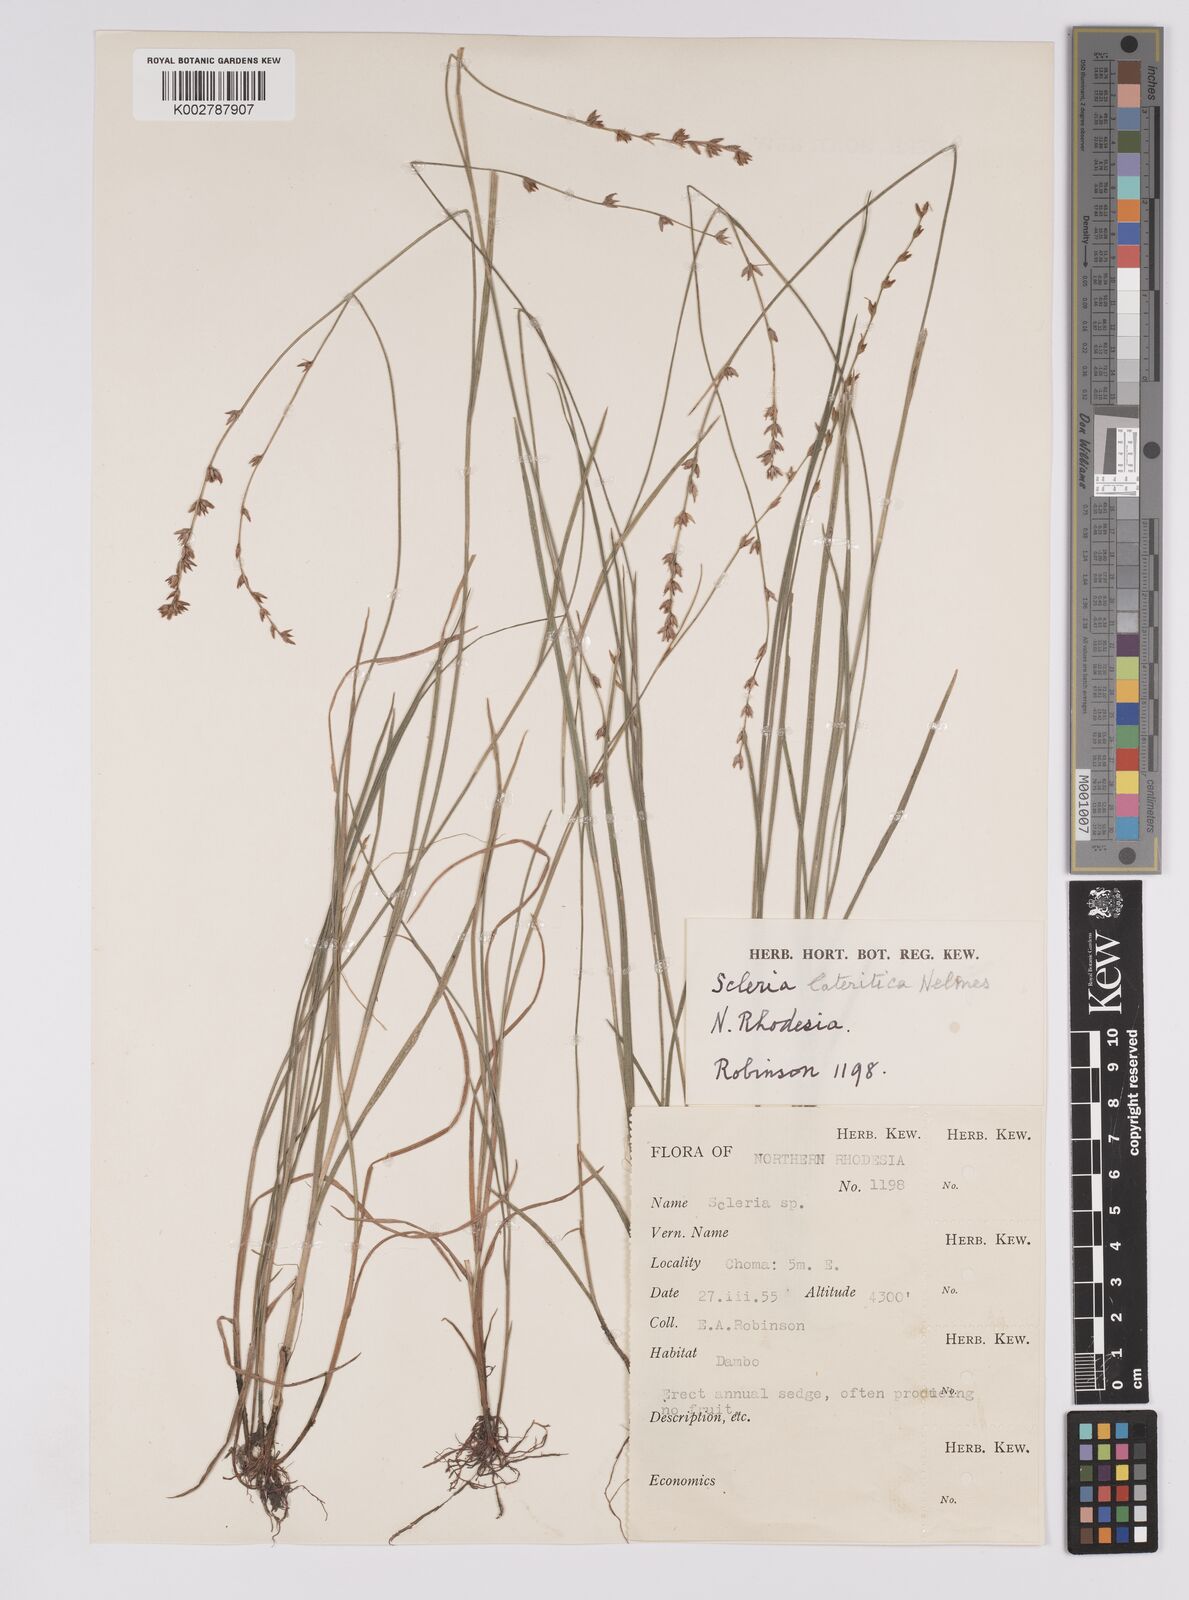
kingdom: Plantae
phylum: Tracheophyta
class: Liliopsida
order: Poales
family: Cyperaceae
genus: Scleria
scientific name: Scleria flexuosa
